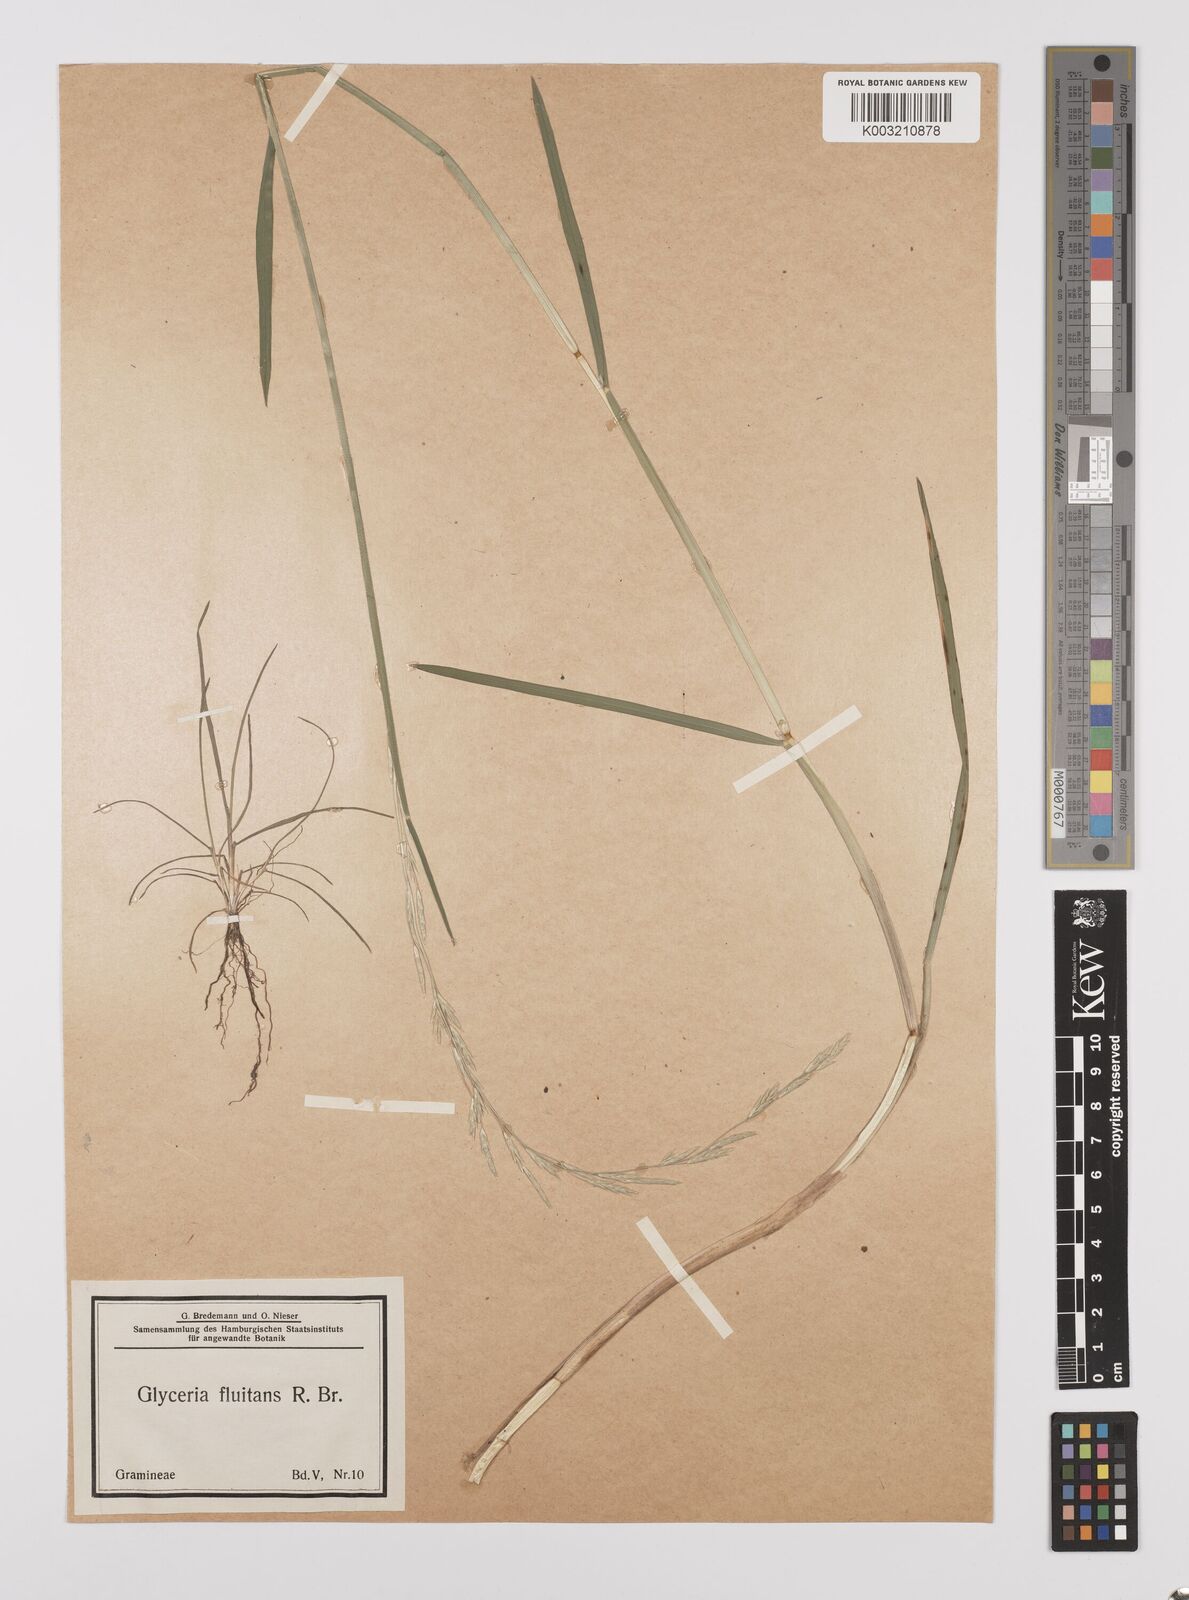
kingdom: Plantae
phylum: Tracheophyta
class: Liliopsida
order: Poales
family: Poaceae
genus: Glyceria
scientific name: Glyceria fluitans
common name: Floating sweet-grass
